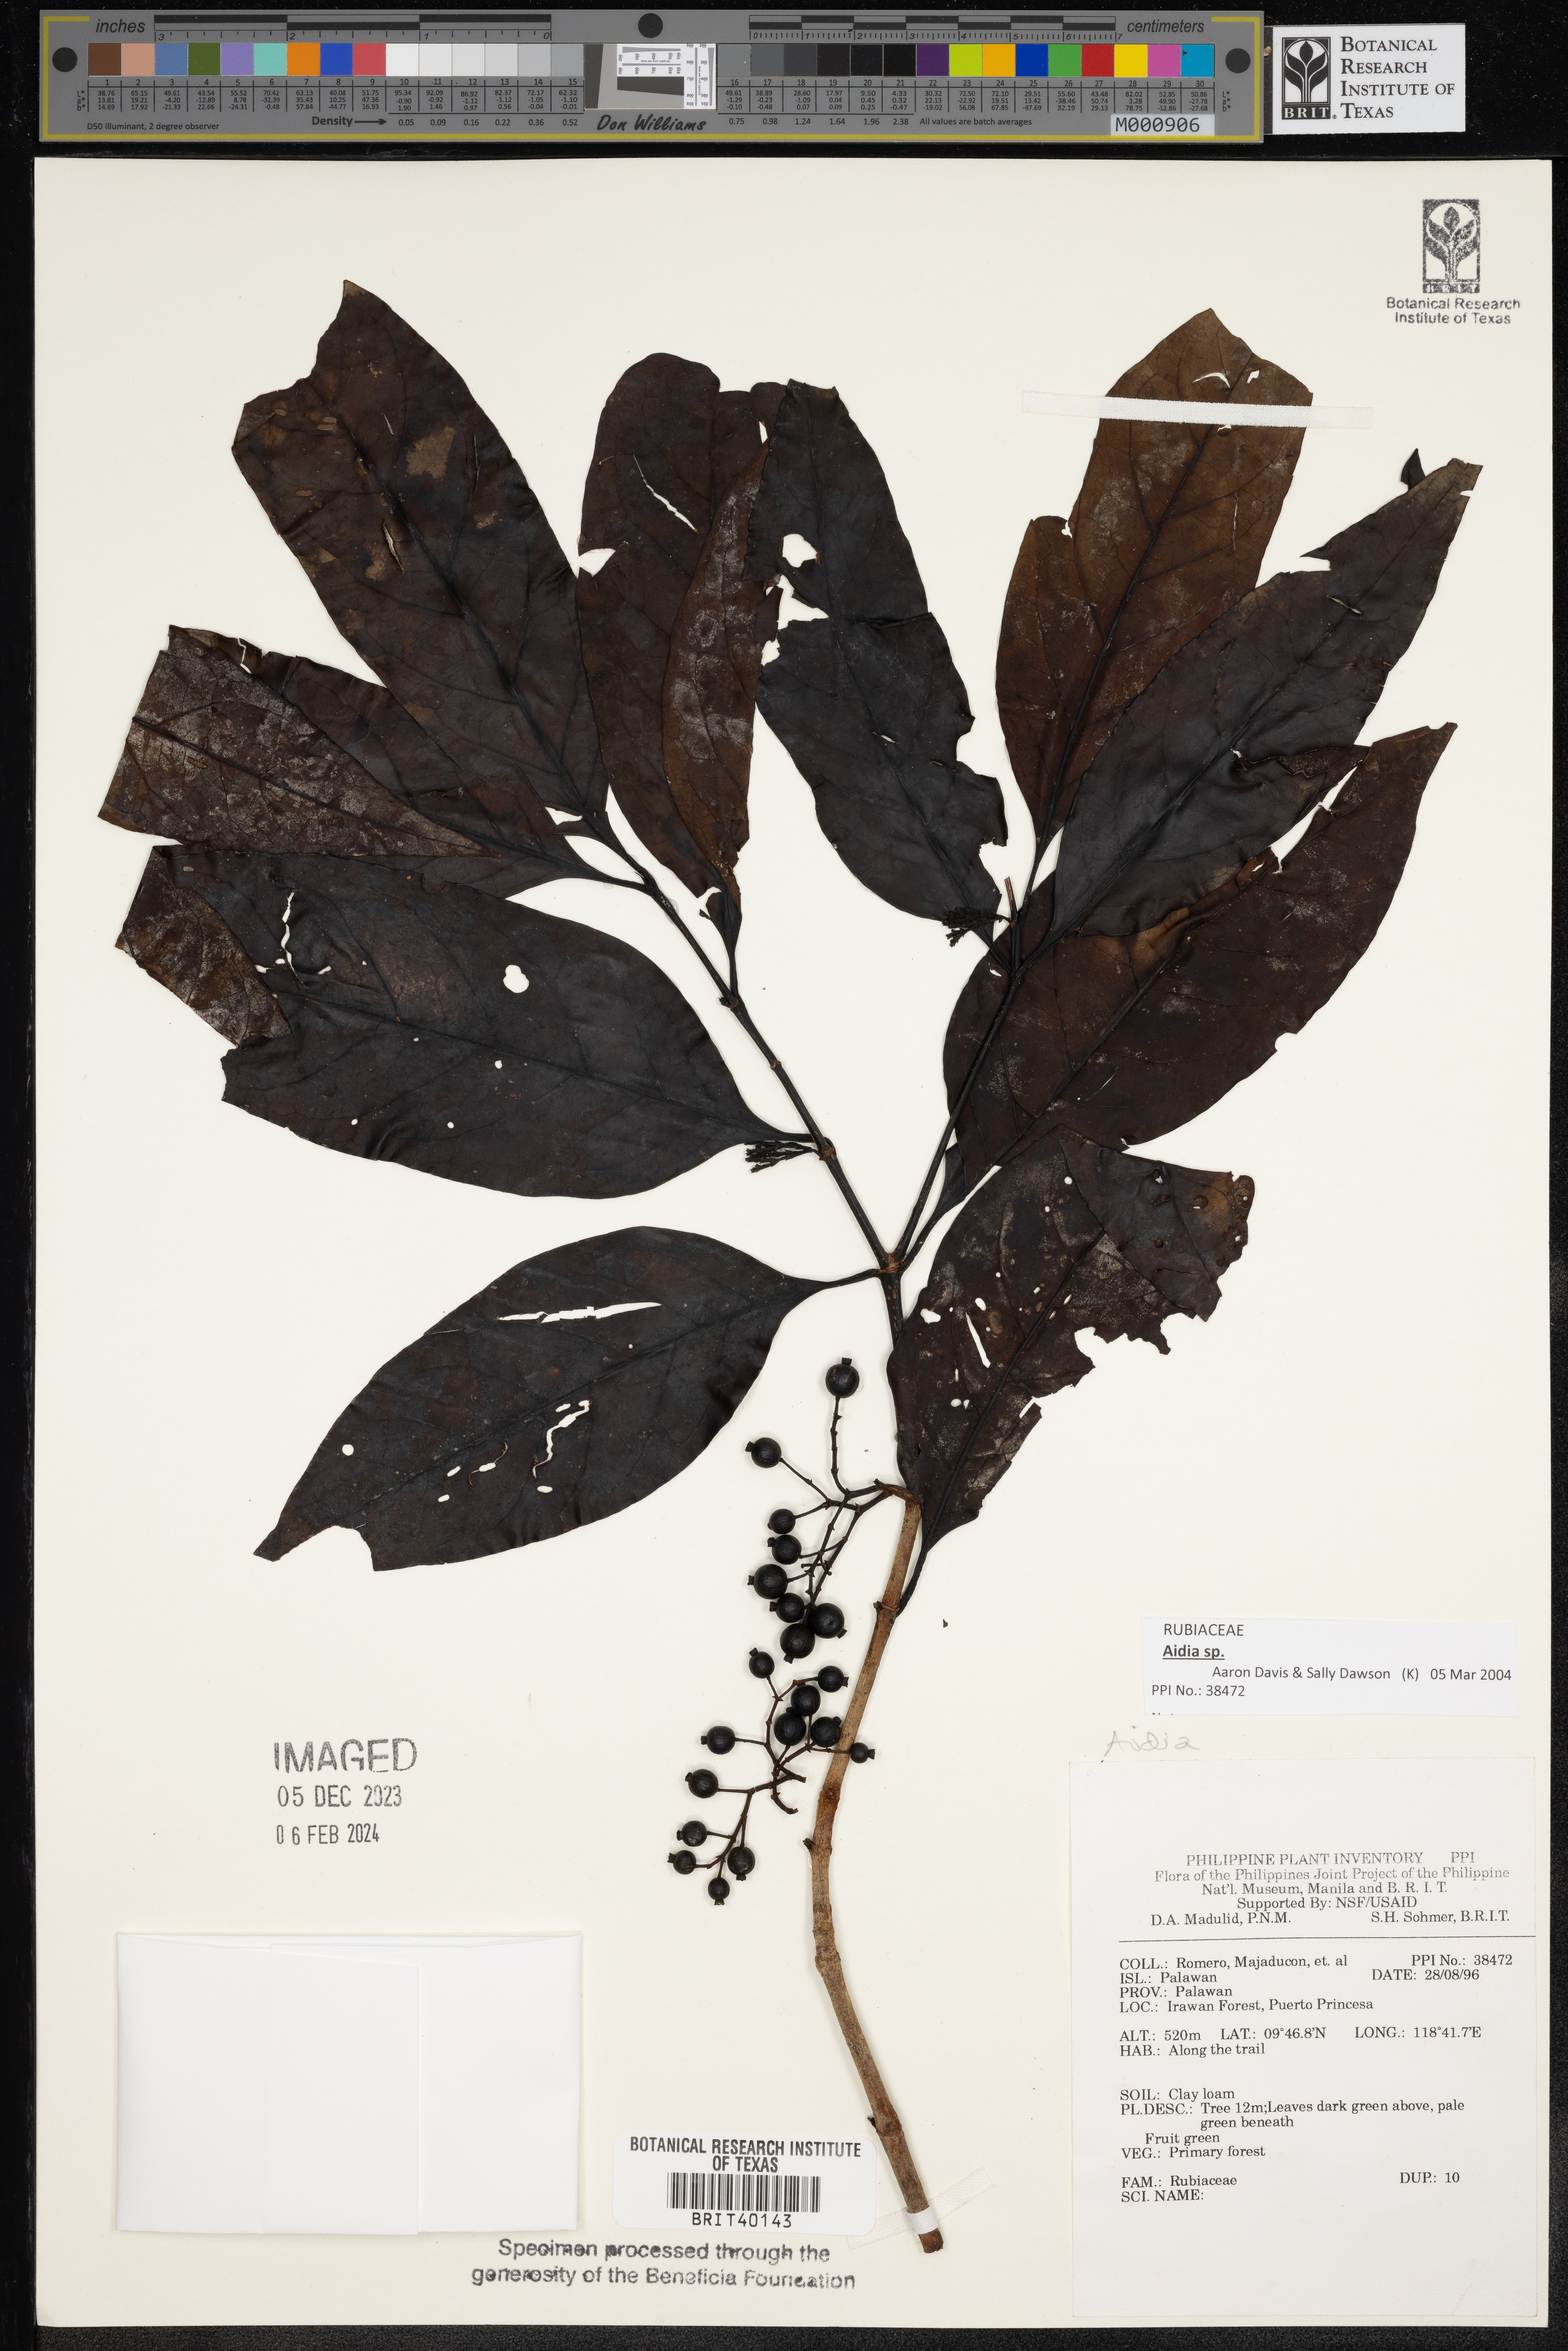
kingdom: Plantae
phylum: Tracheophyta
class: Magnoliopsida
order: Gentianales
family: Rubiaceae
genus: Aidia
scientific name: Aidia
